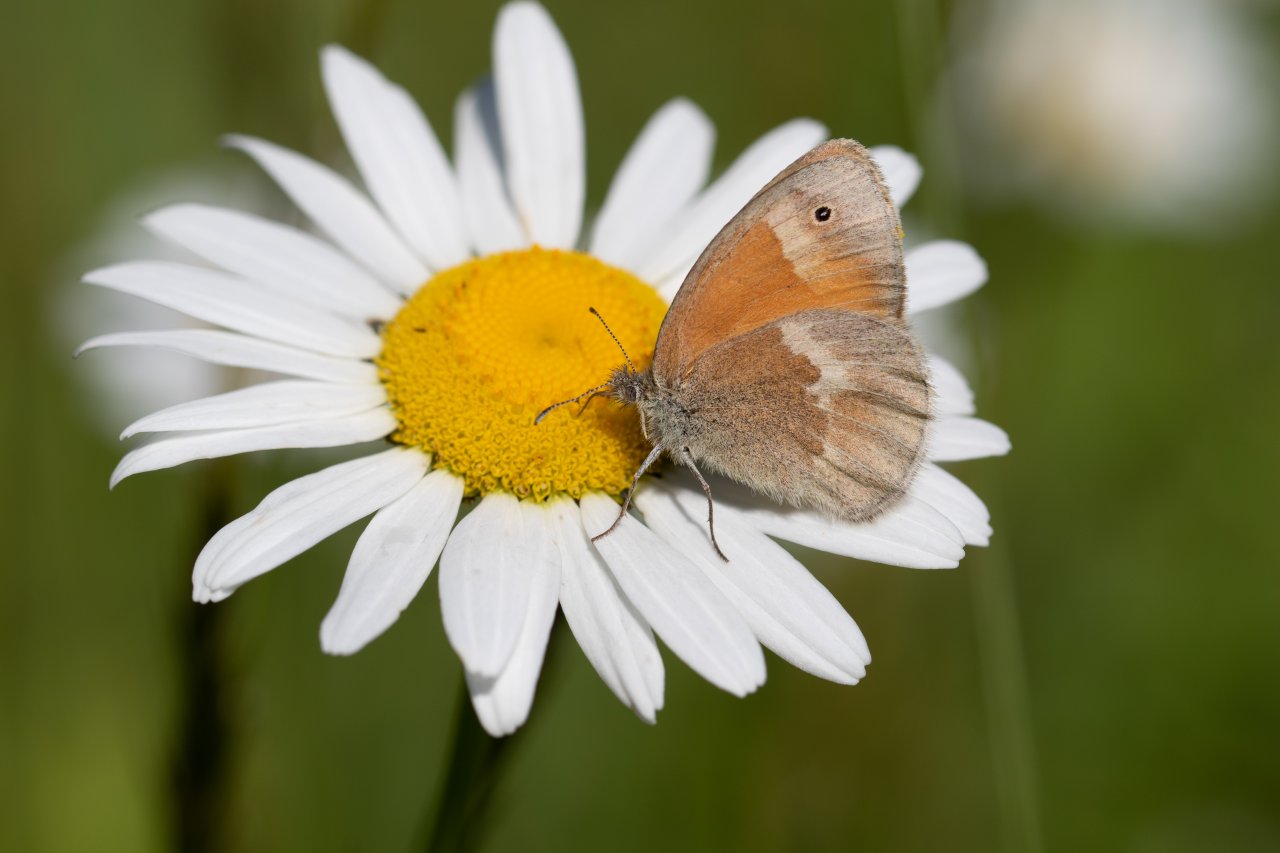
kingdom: Animalia
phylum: Arthropoda
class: Insecta
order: Lepidoptera
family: Nymphalidae
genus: Coenonympha
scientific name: Coenonympha tullia
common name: Large Heath
